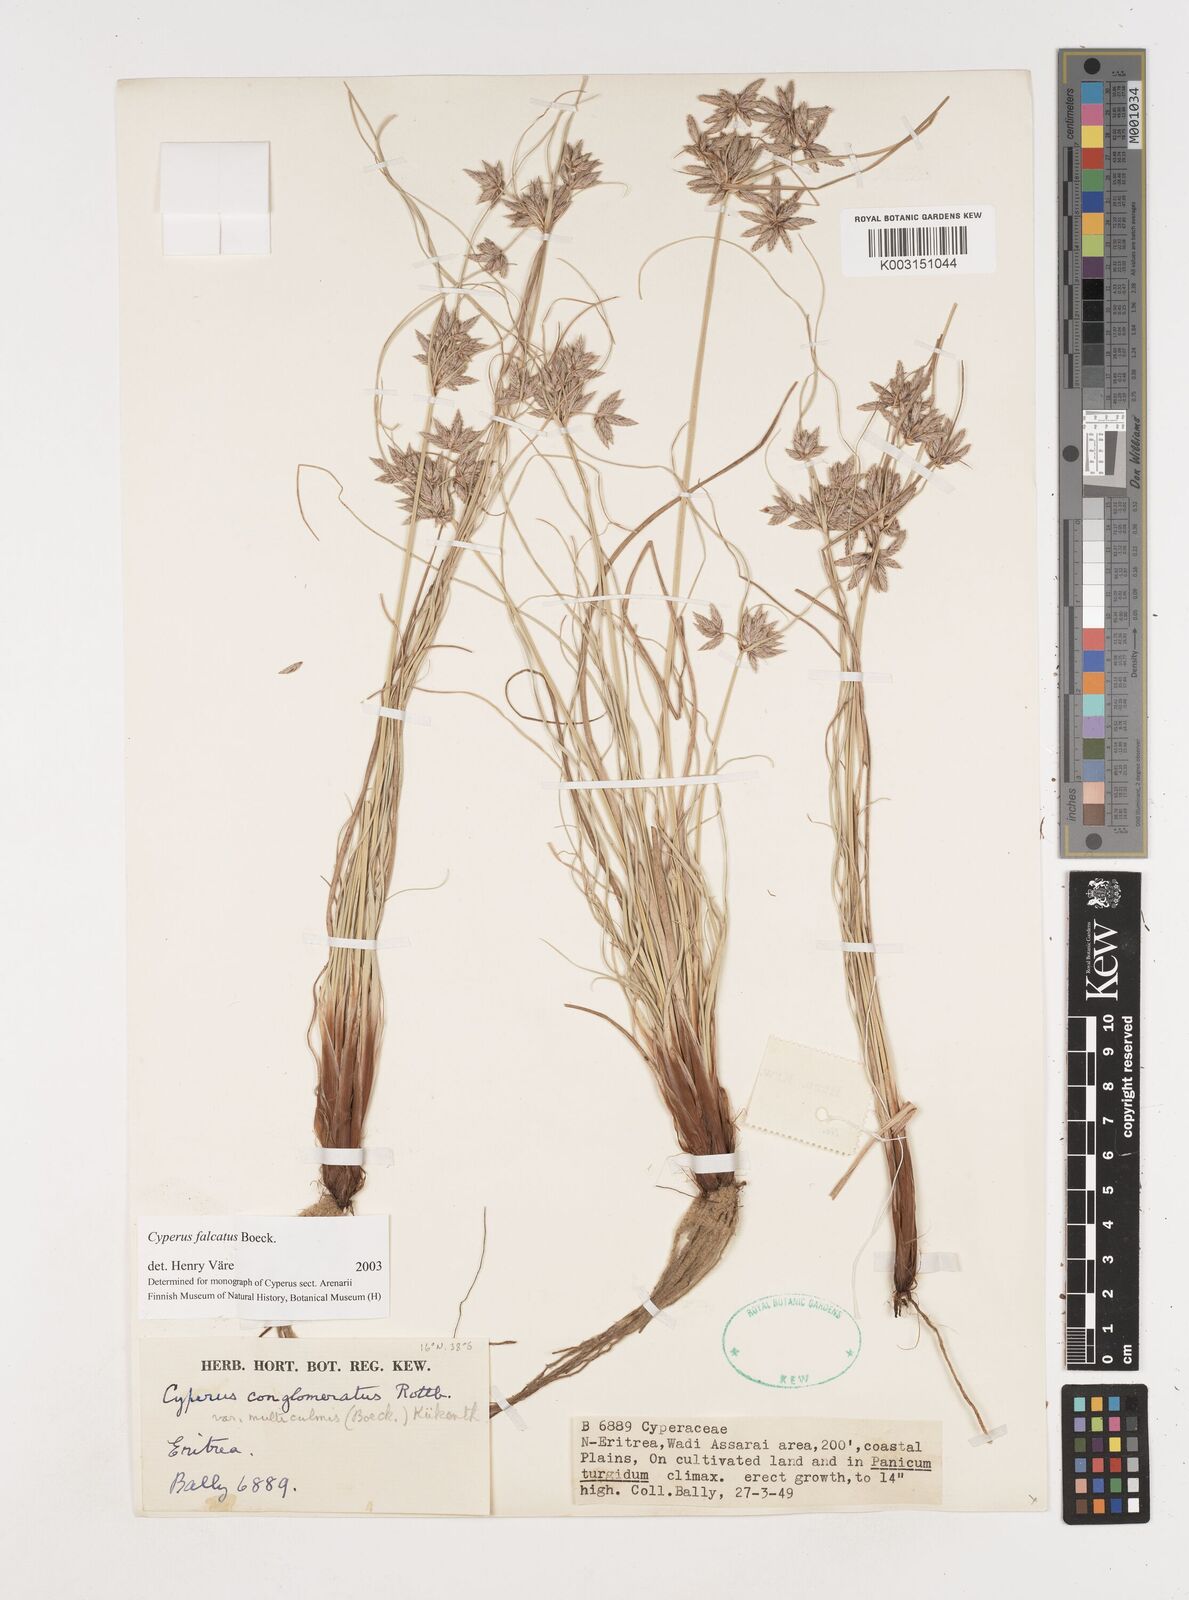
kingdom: Plantae
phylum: Tracheophyta
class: Liliopsida
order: Poales
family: Cyperaceae
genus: Cyperus
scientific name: Cyperus conglomeratus
